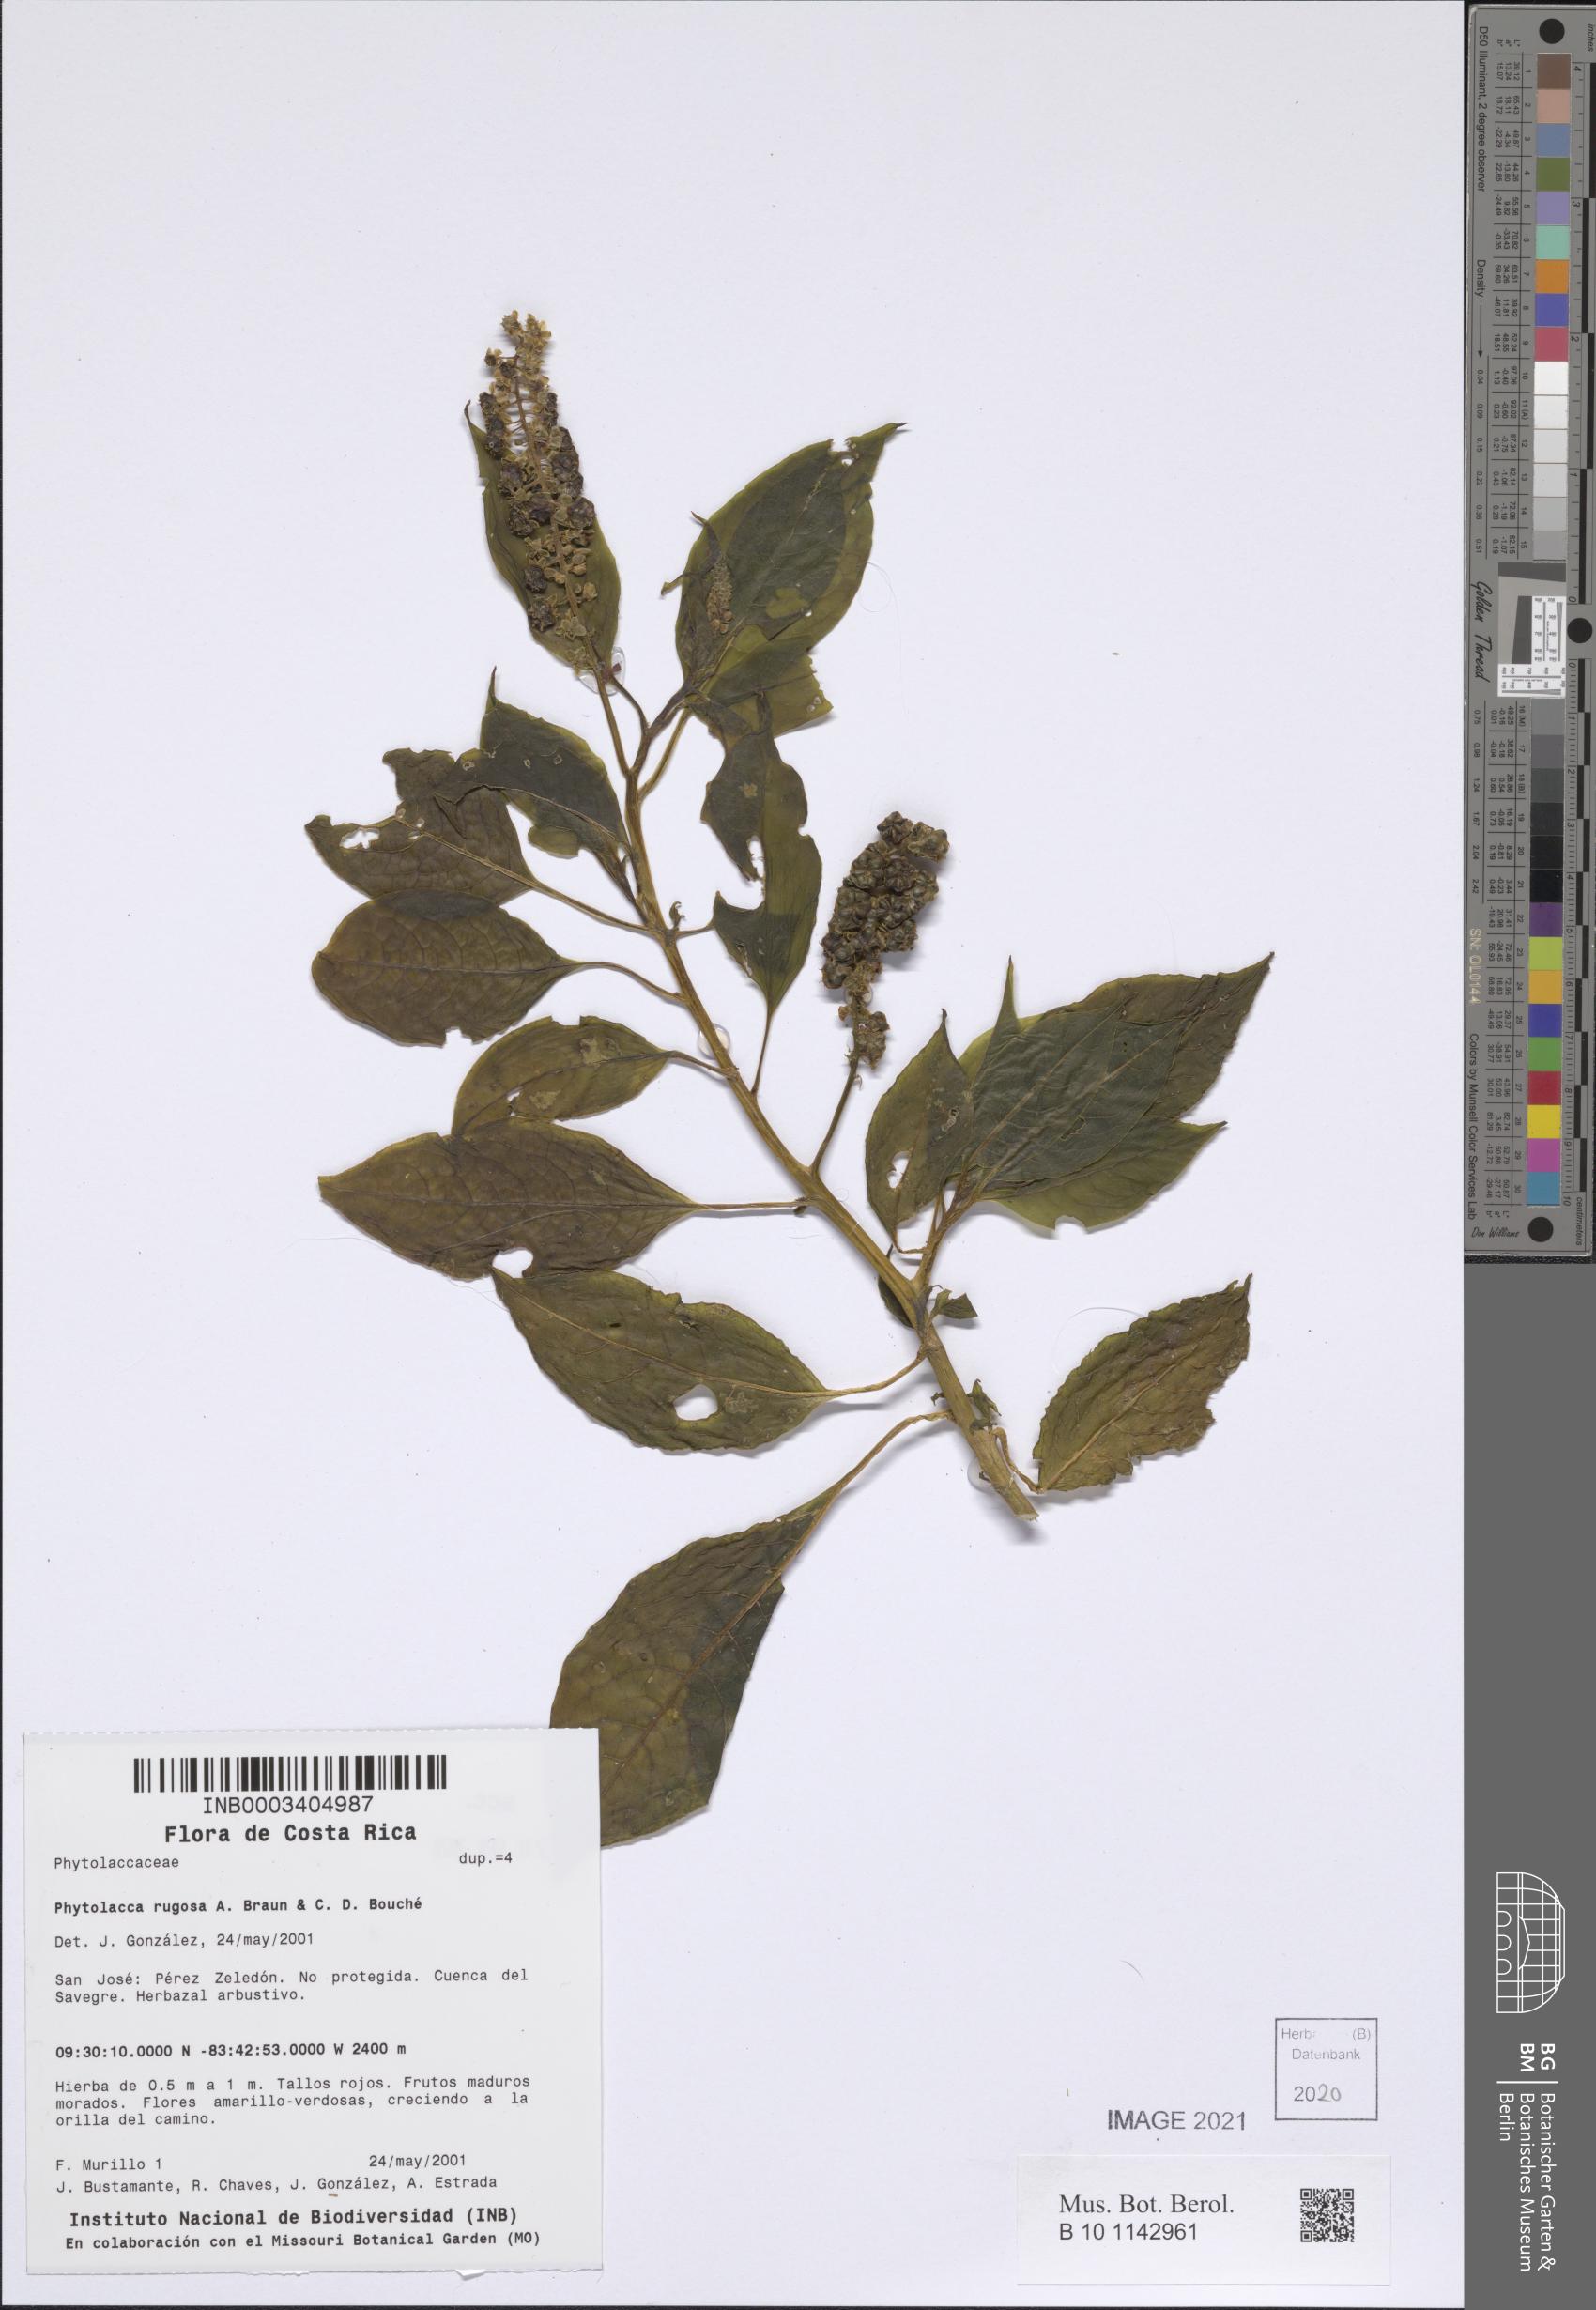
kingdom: Plantae
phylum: Tracheophyta
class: Magnoliopsida
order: Caryophyllales
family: Phytolaccaceae
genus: Phytolacca
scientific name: Phytolacca rugosa
